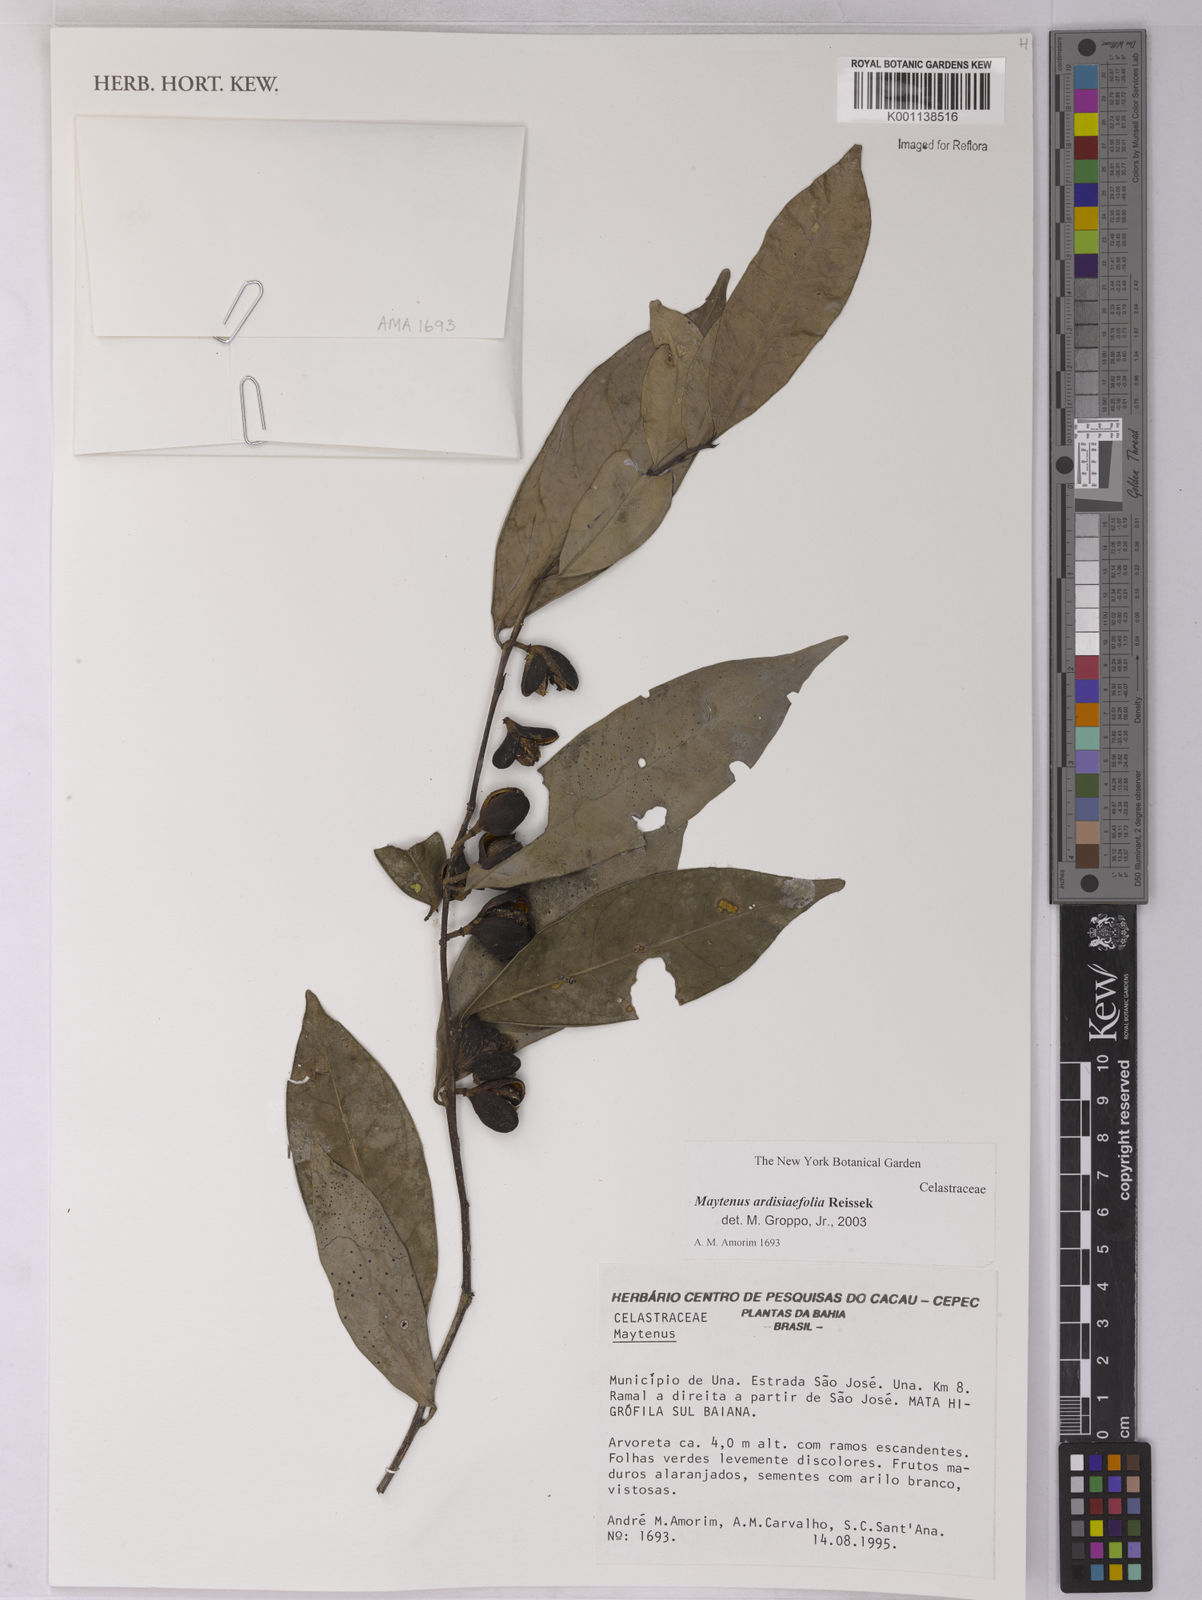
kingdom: Plantae
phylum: Tracheophyta
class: Magnoliopsida
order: Celastrales
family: Celastraceae
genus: Monteverdia
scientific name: Monteverdia ardisiifolia
